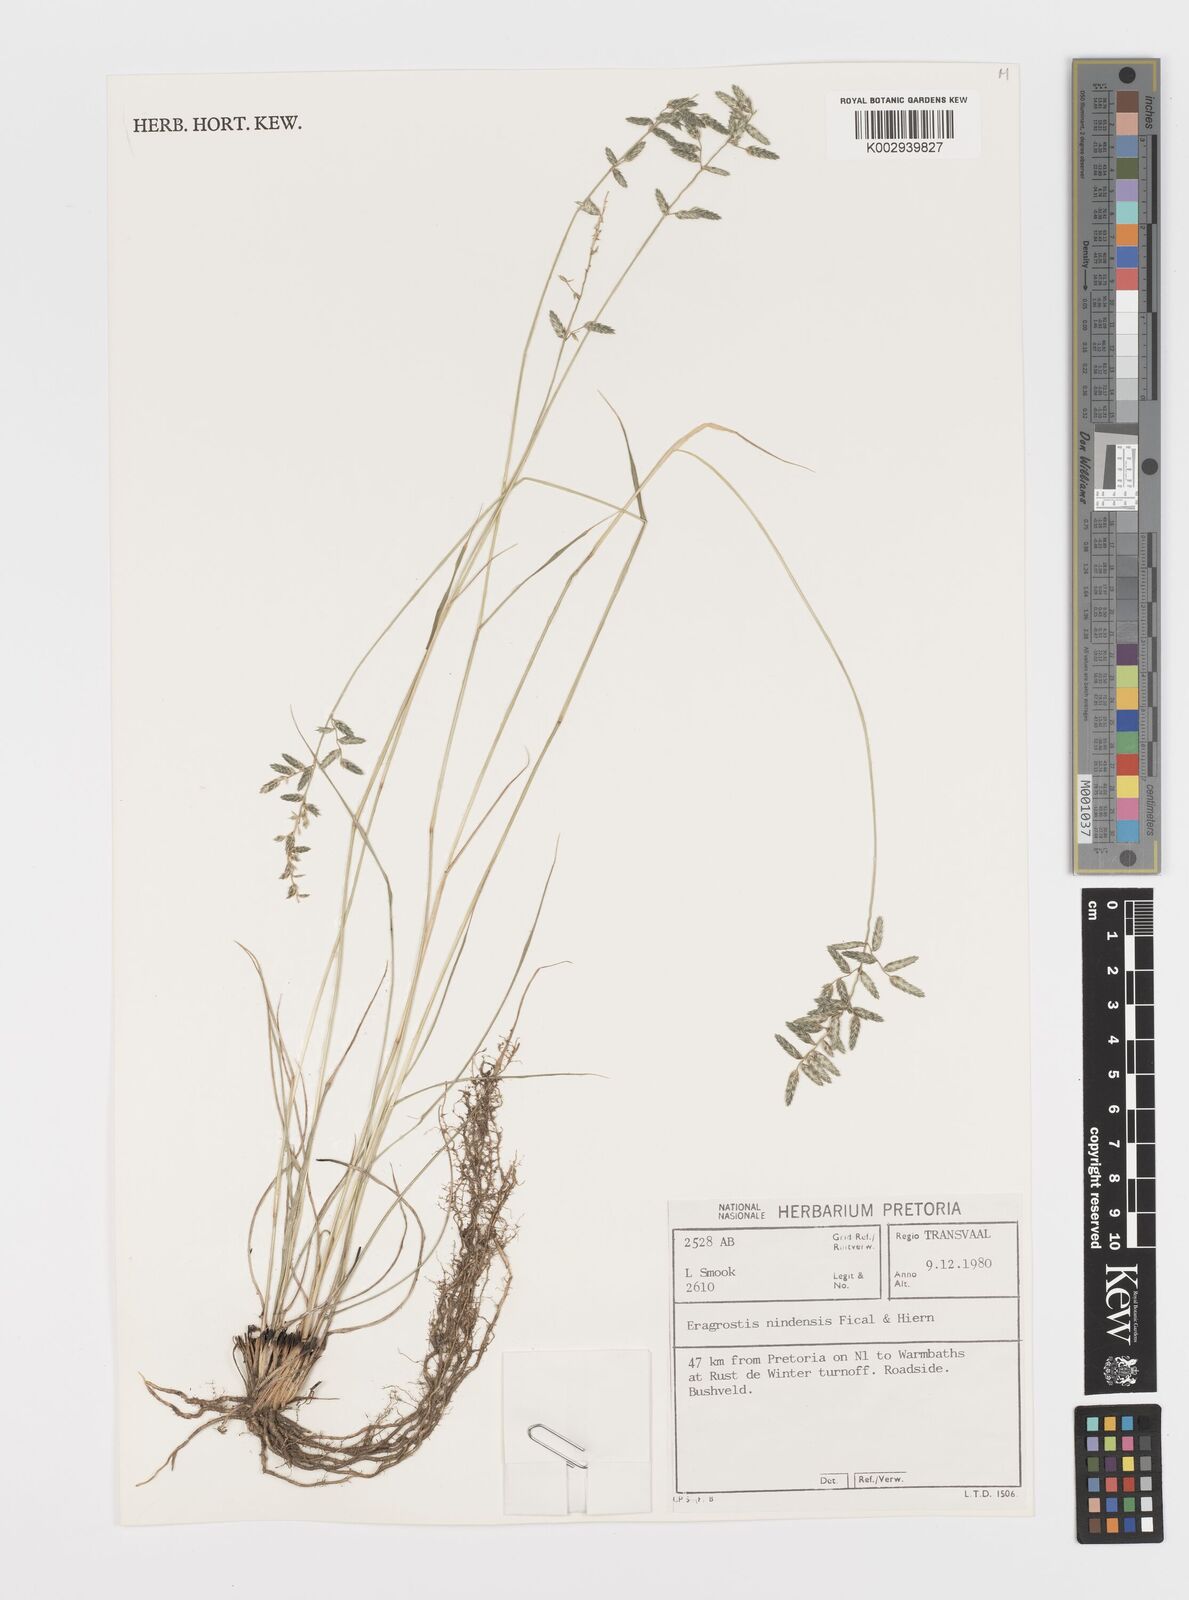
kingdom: Plantae
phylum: Tracheophyta
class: Liliopsida
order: Poales
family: Poaceae
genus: Eragrostis
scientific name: Eragrostis nindensis
